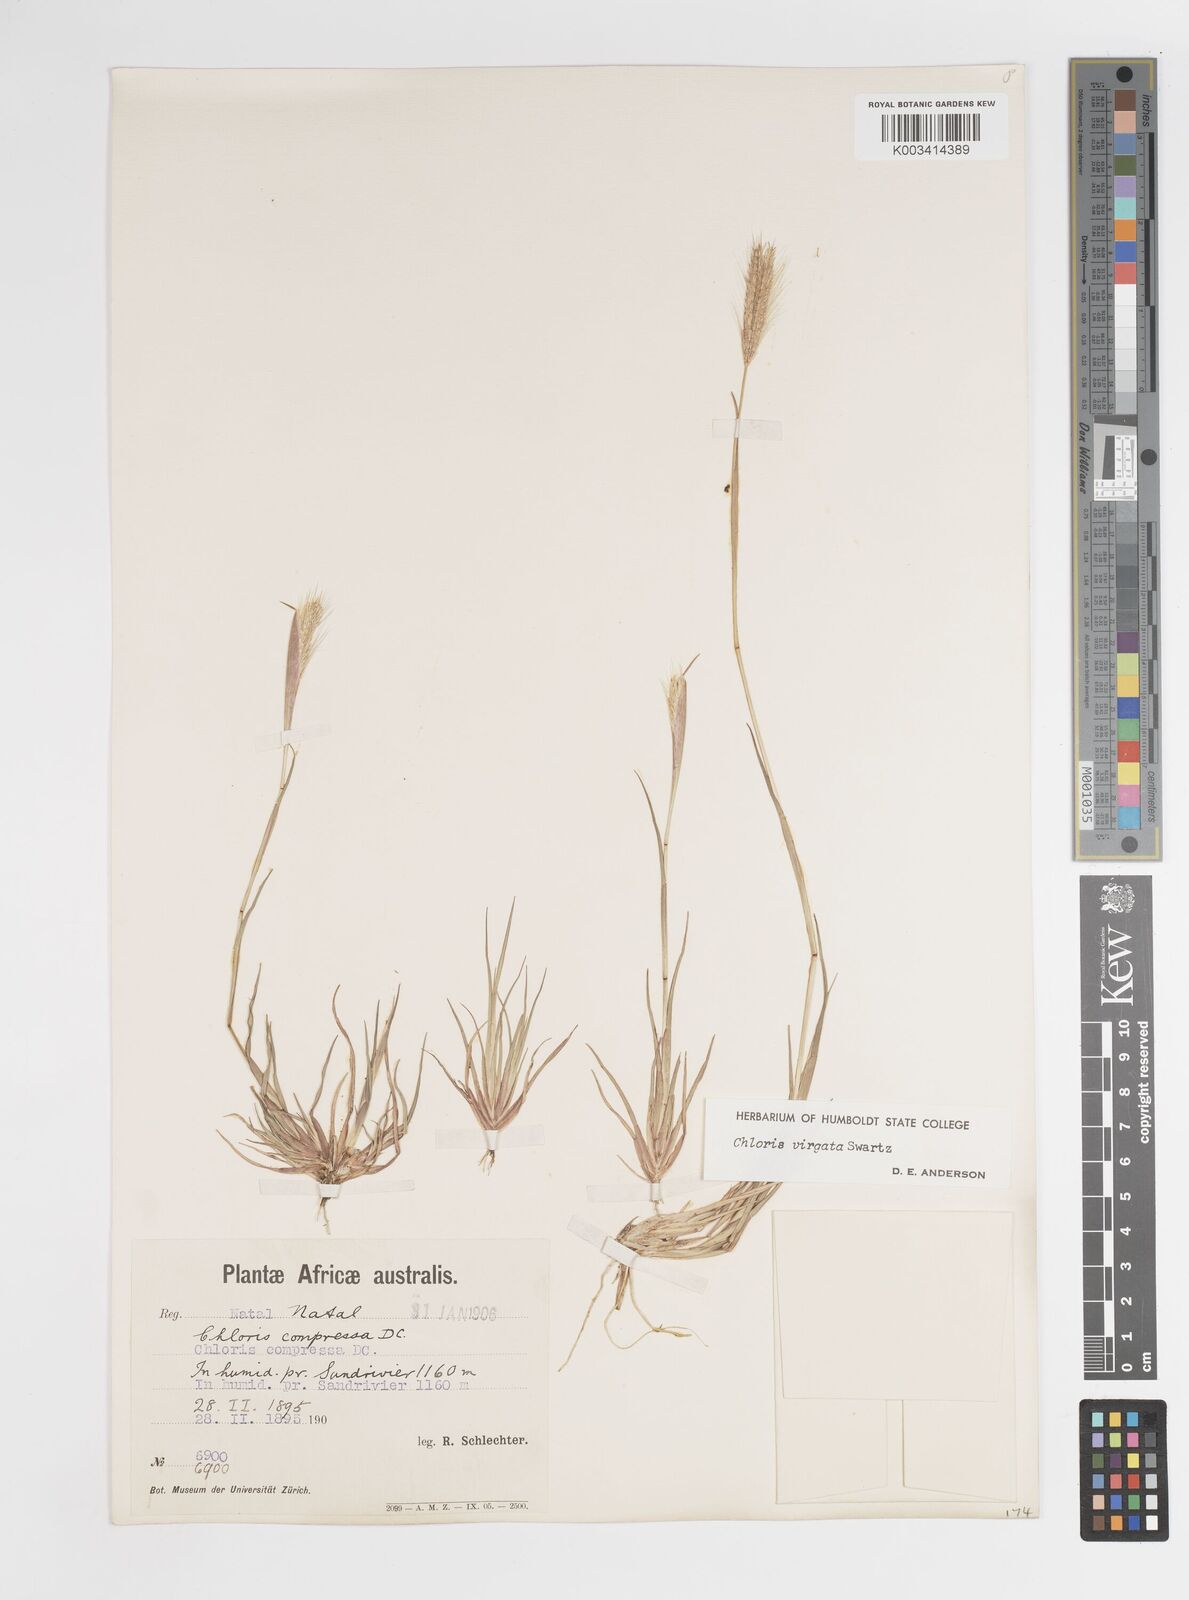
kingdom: Plantae
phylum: Tracheophyta
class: Liliopsida
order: Poales
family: Poaceae
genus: Chloris
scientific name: Chloris virgata
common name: Feathery rhodes-grass
